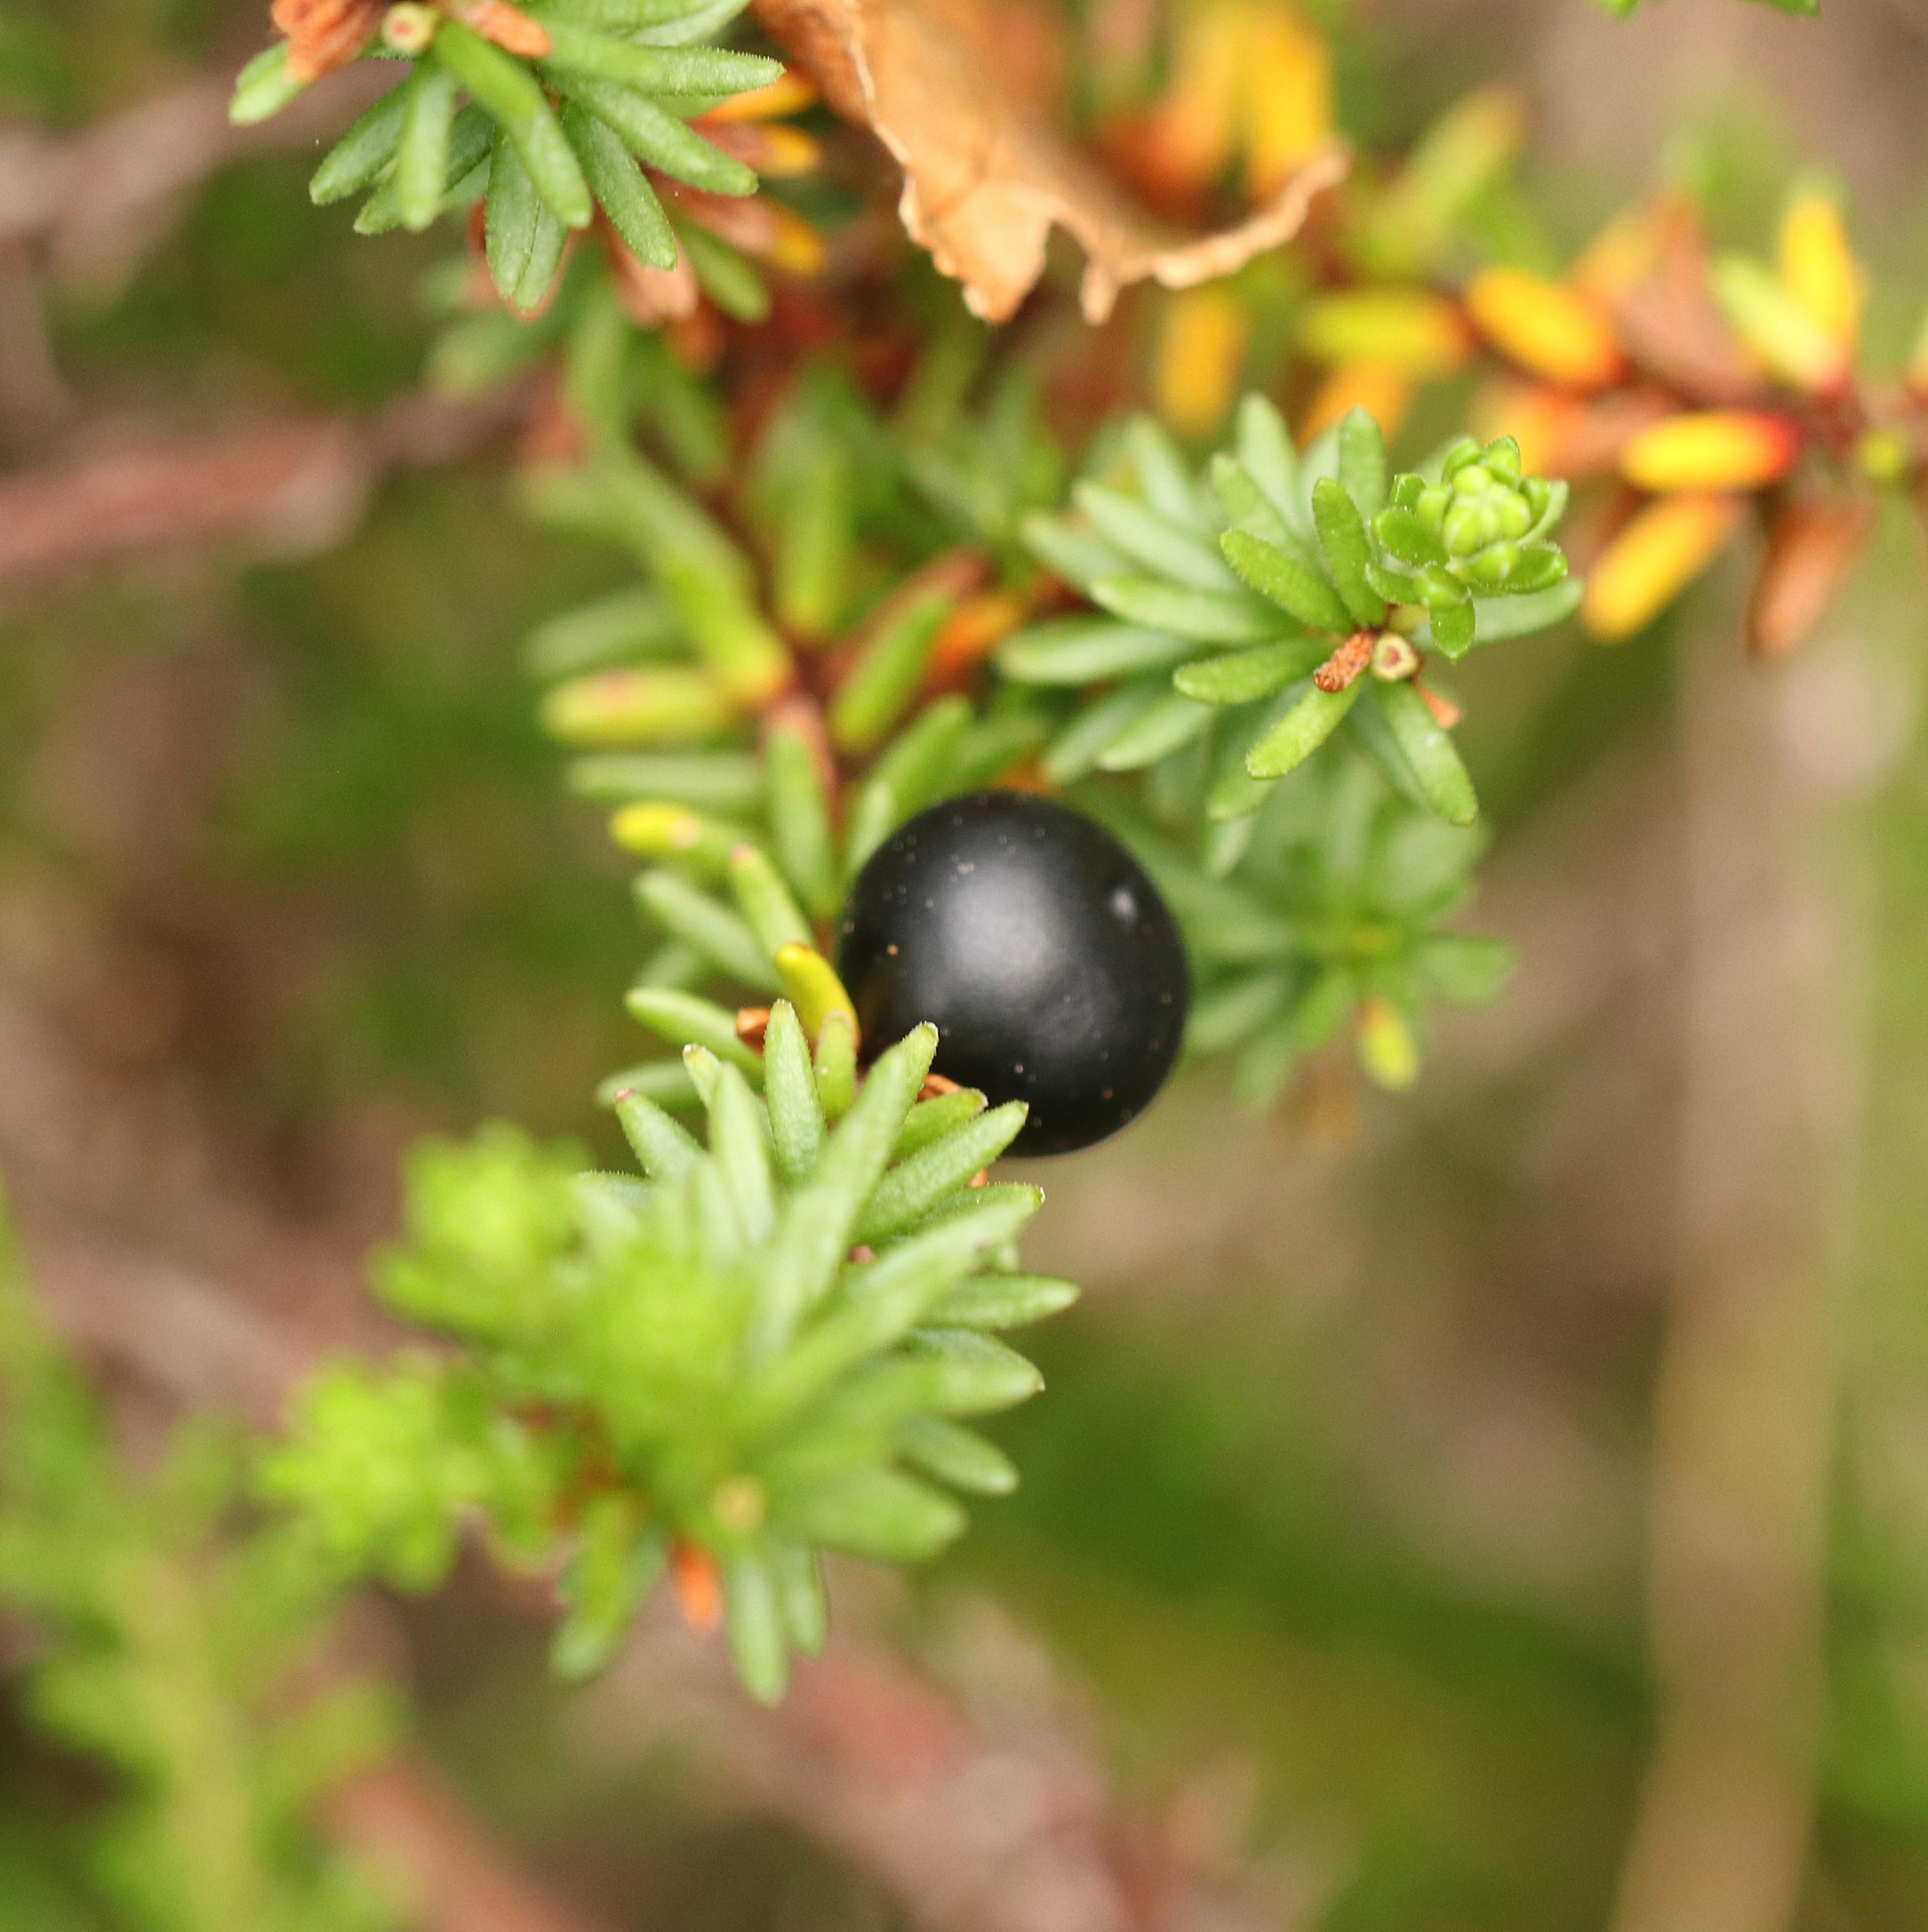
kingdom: Plantae
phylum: Tracheophyta
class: Magnoliopsida
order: Ericales
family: Ericaceae
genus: Empetrum
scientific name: Empetrum nigrum
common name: Revling
